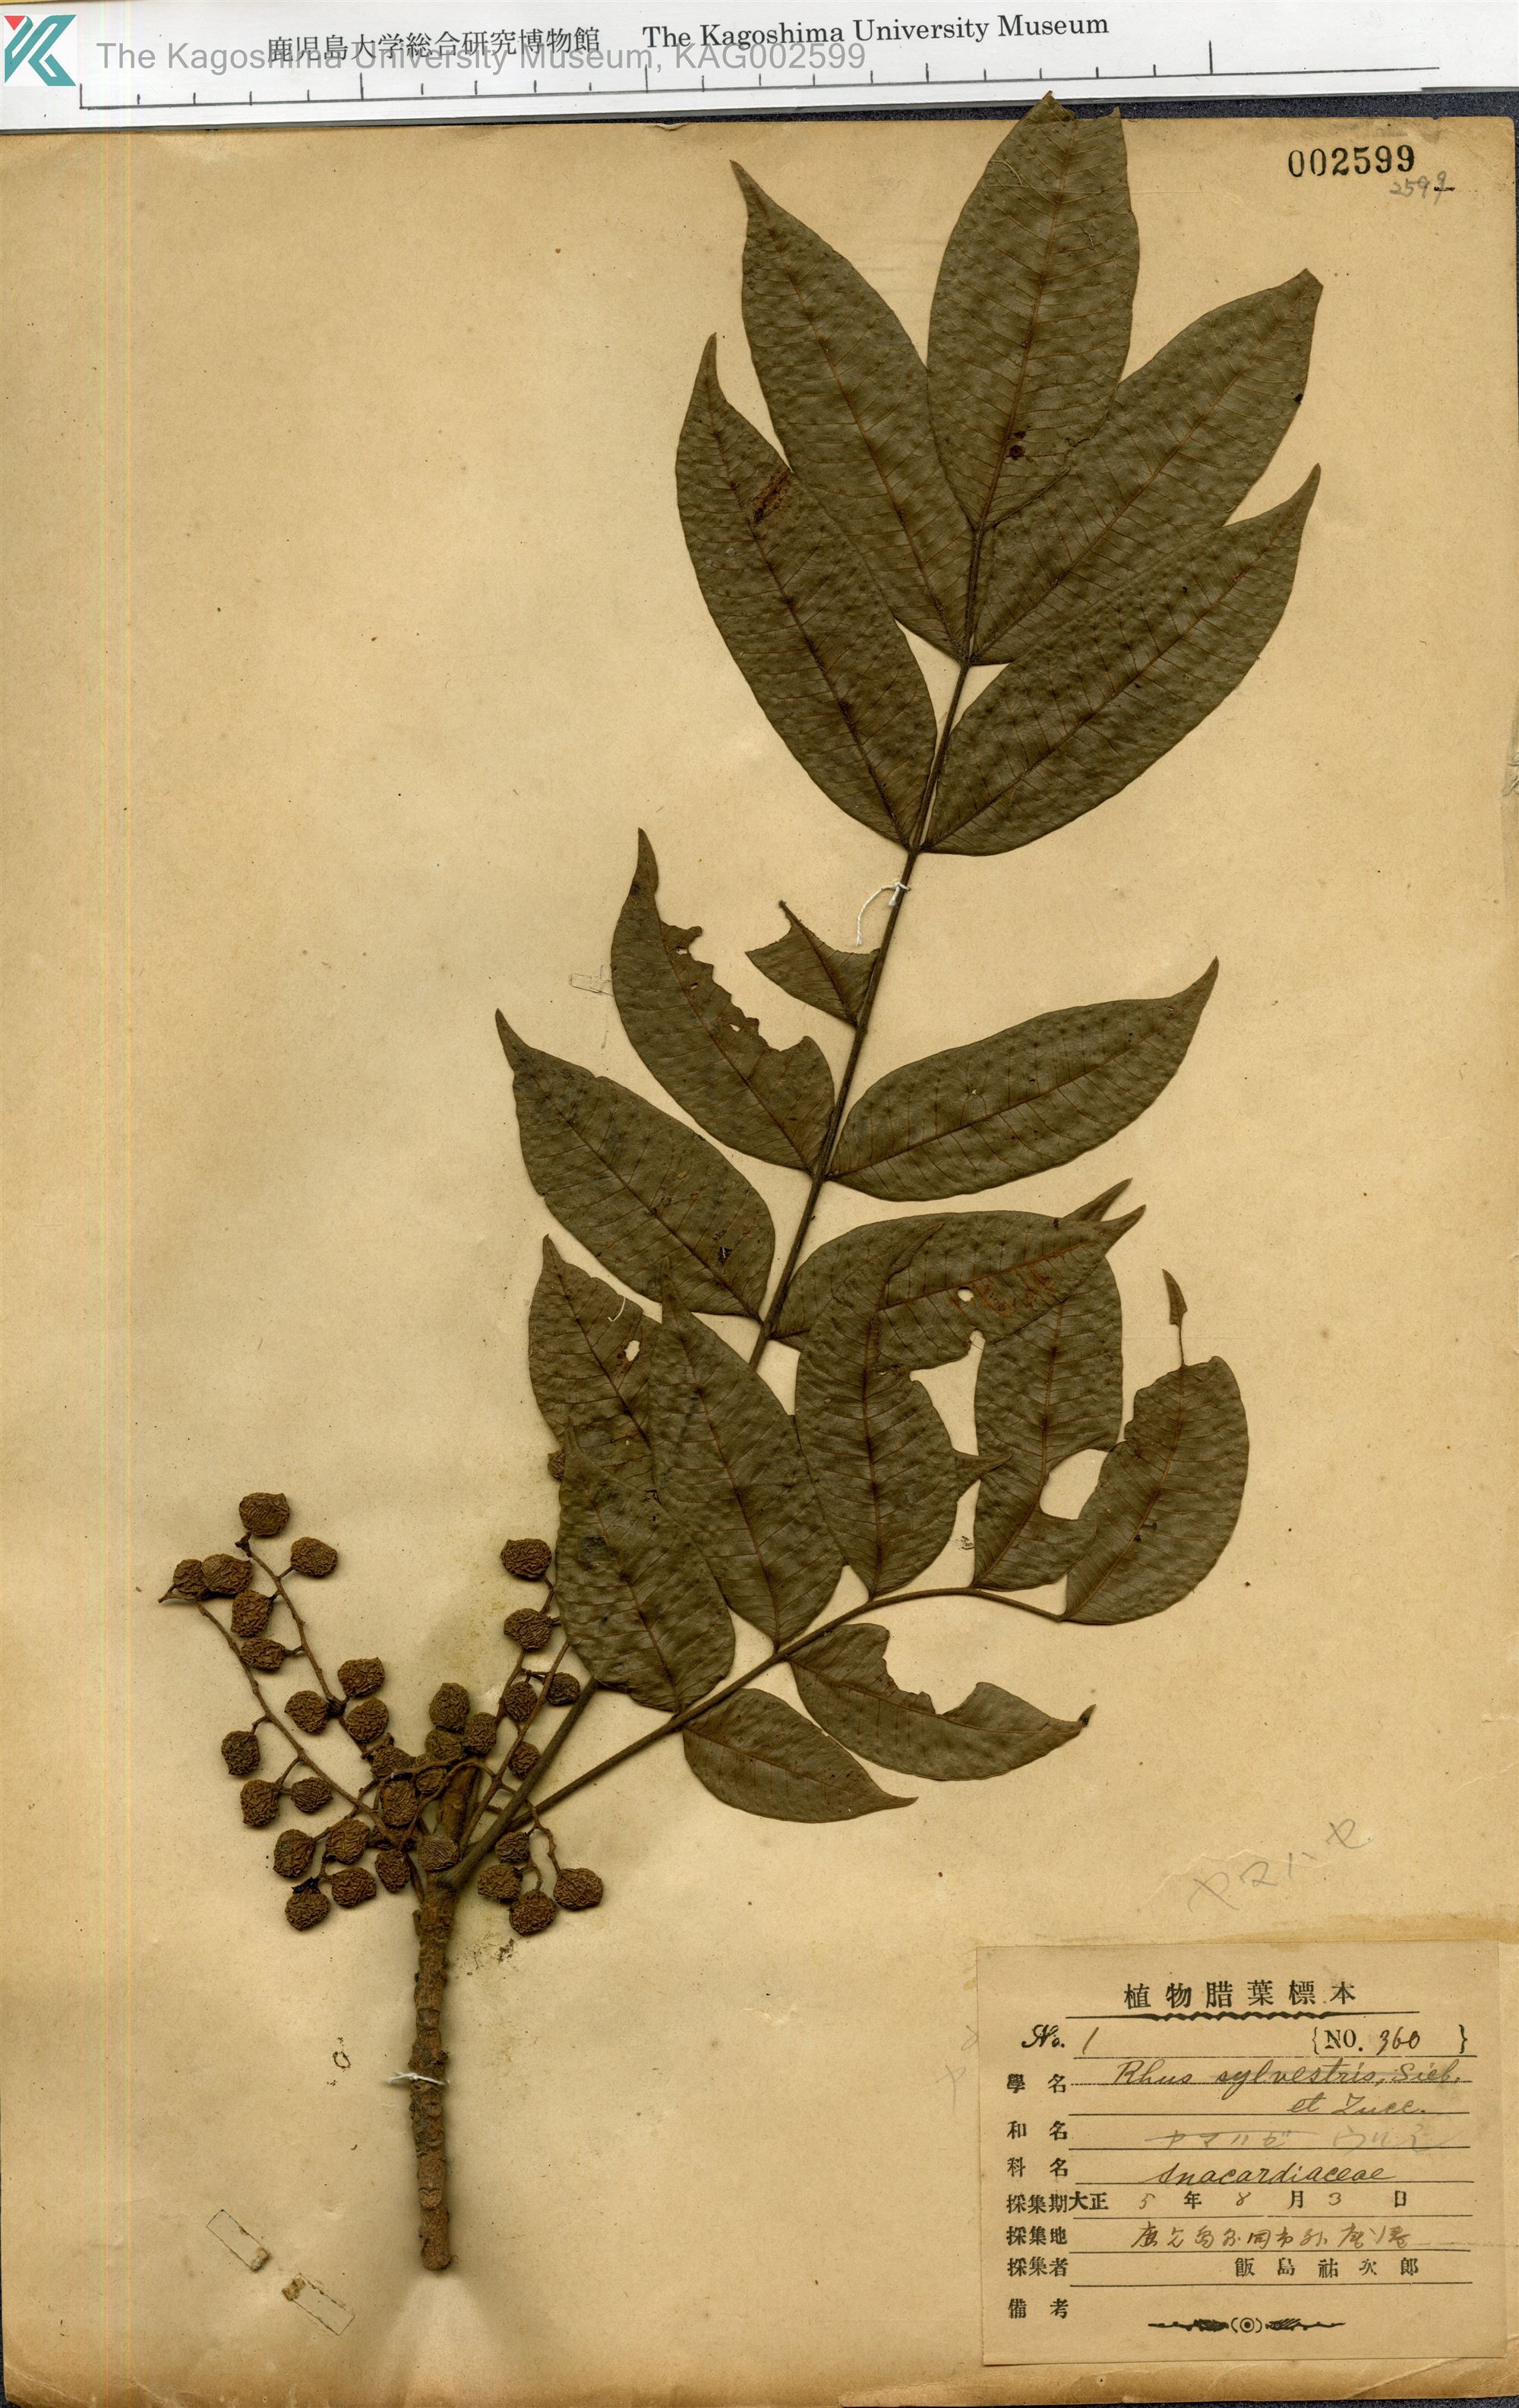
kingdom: Plantae
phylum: Tracheophyta
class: Magnoliopsida
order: Sapindales
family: Anacardiaceae
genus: Toxicodendron
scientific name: Toxicodendron sylvestre
